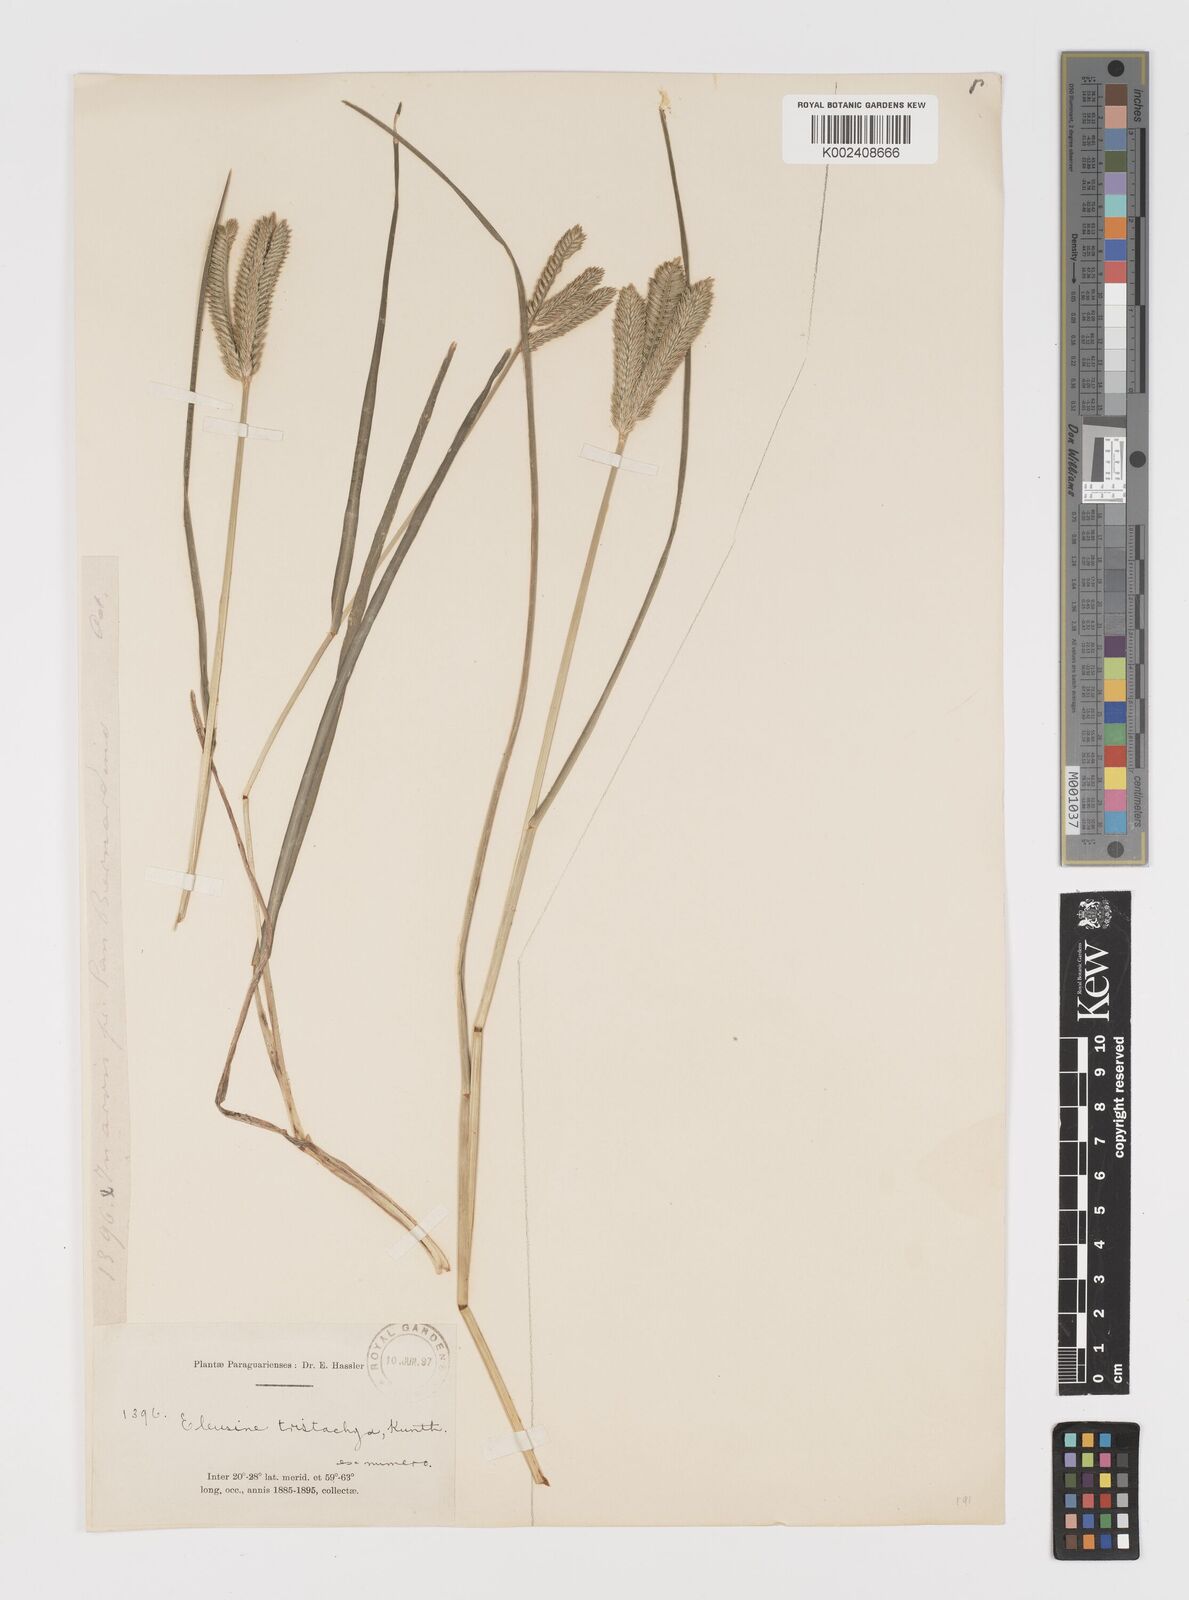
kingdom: Plantae
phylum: Tracheophyta
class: Liliopsida
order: Poales
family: Poaceae
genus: Eleusine
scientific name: Eleusine tristachya
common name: American yard-grass
